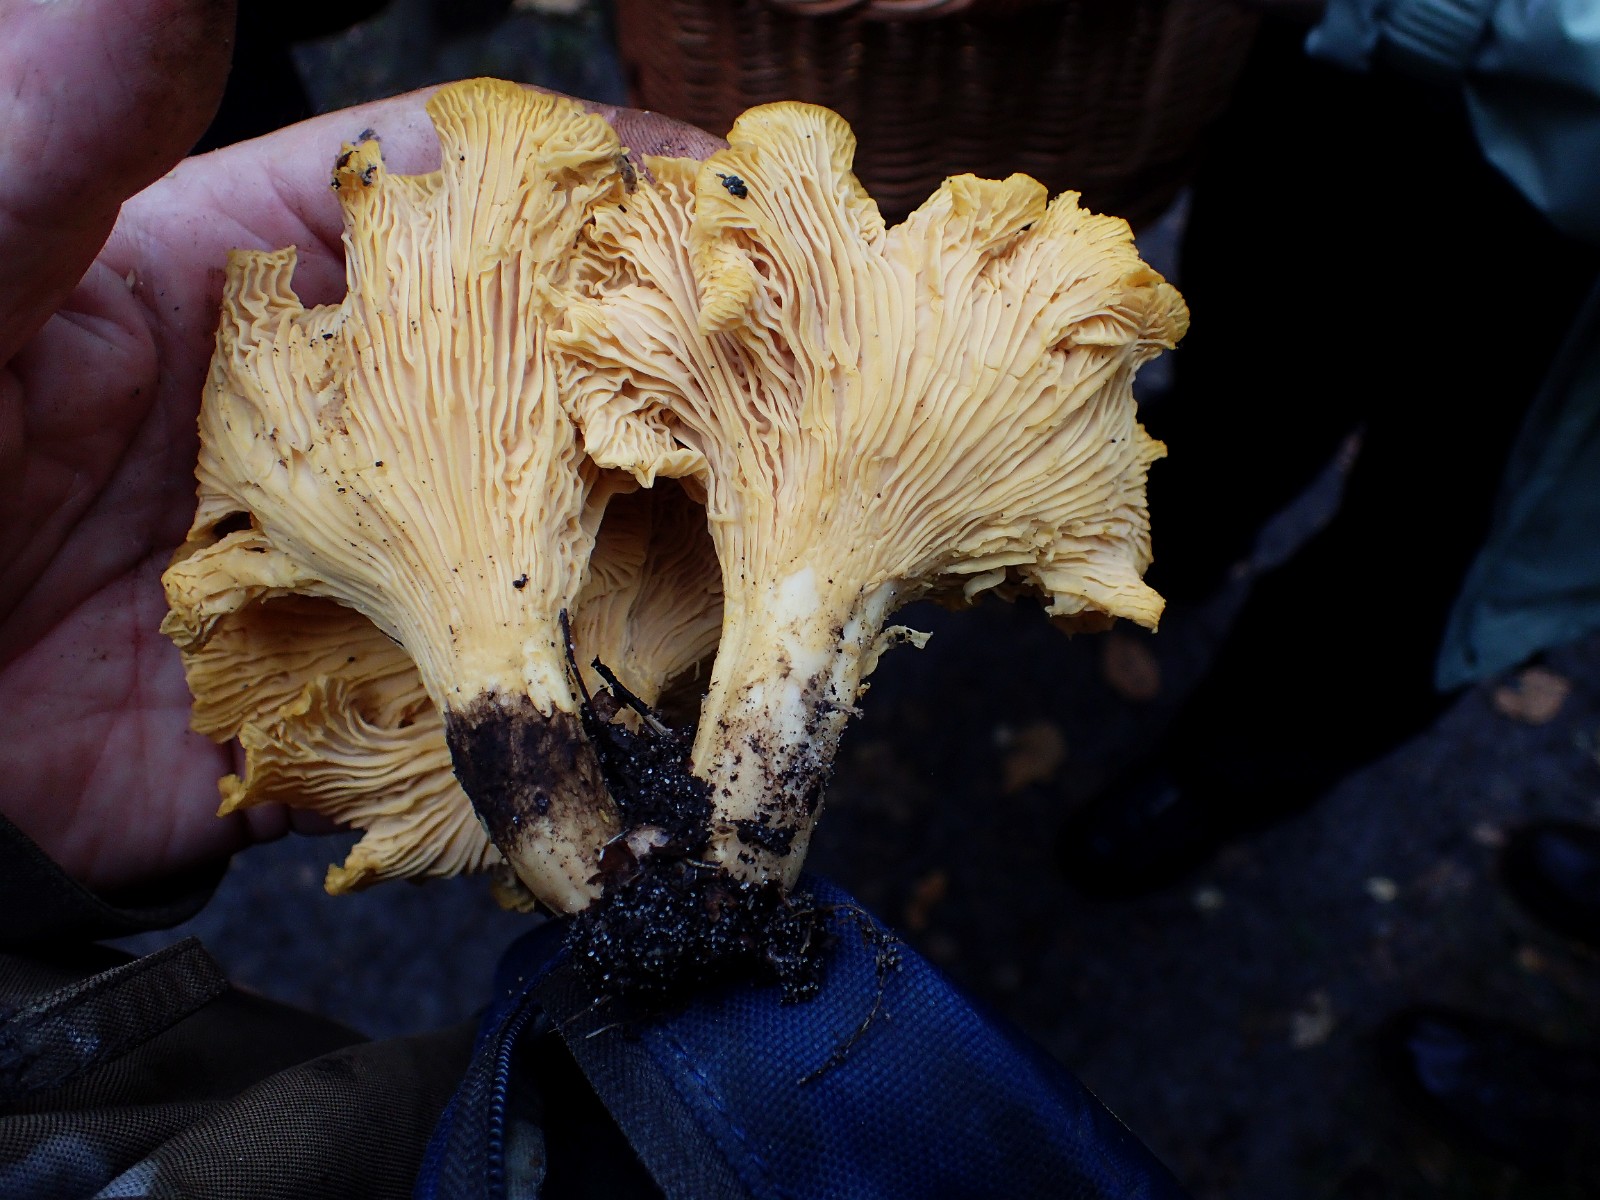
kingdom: Fungi
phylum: Basidiomycota
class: Agaricomycetes
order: Cantharellales
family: Hydnaceae
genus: Cantharellus
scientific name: Cantharellus
